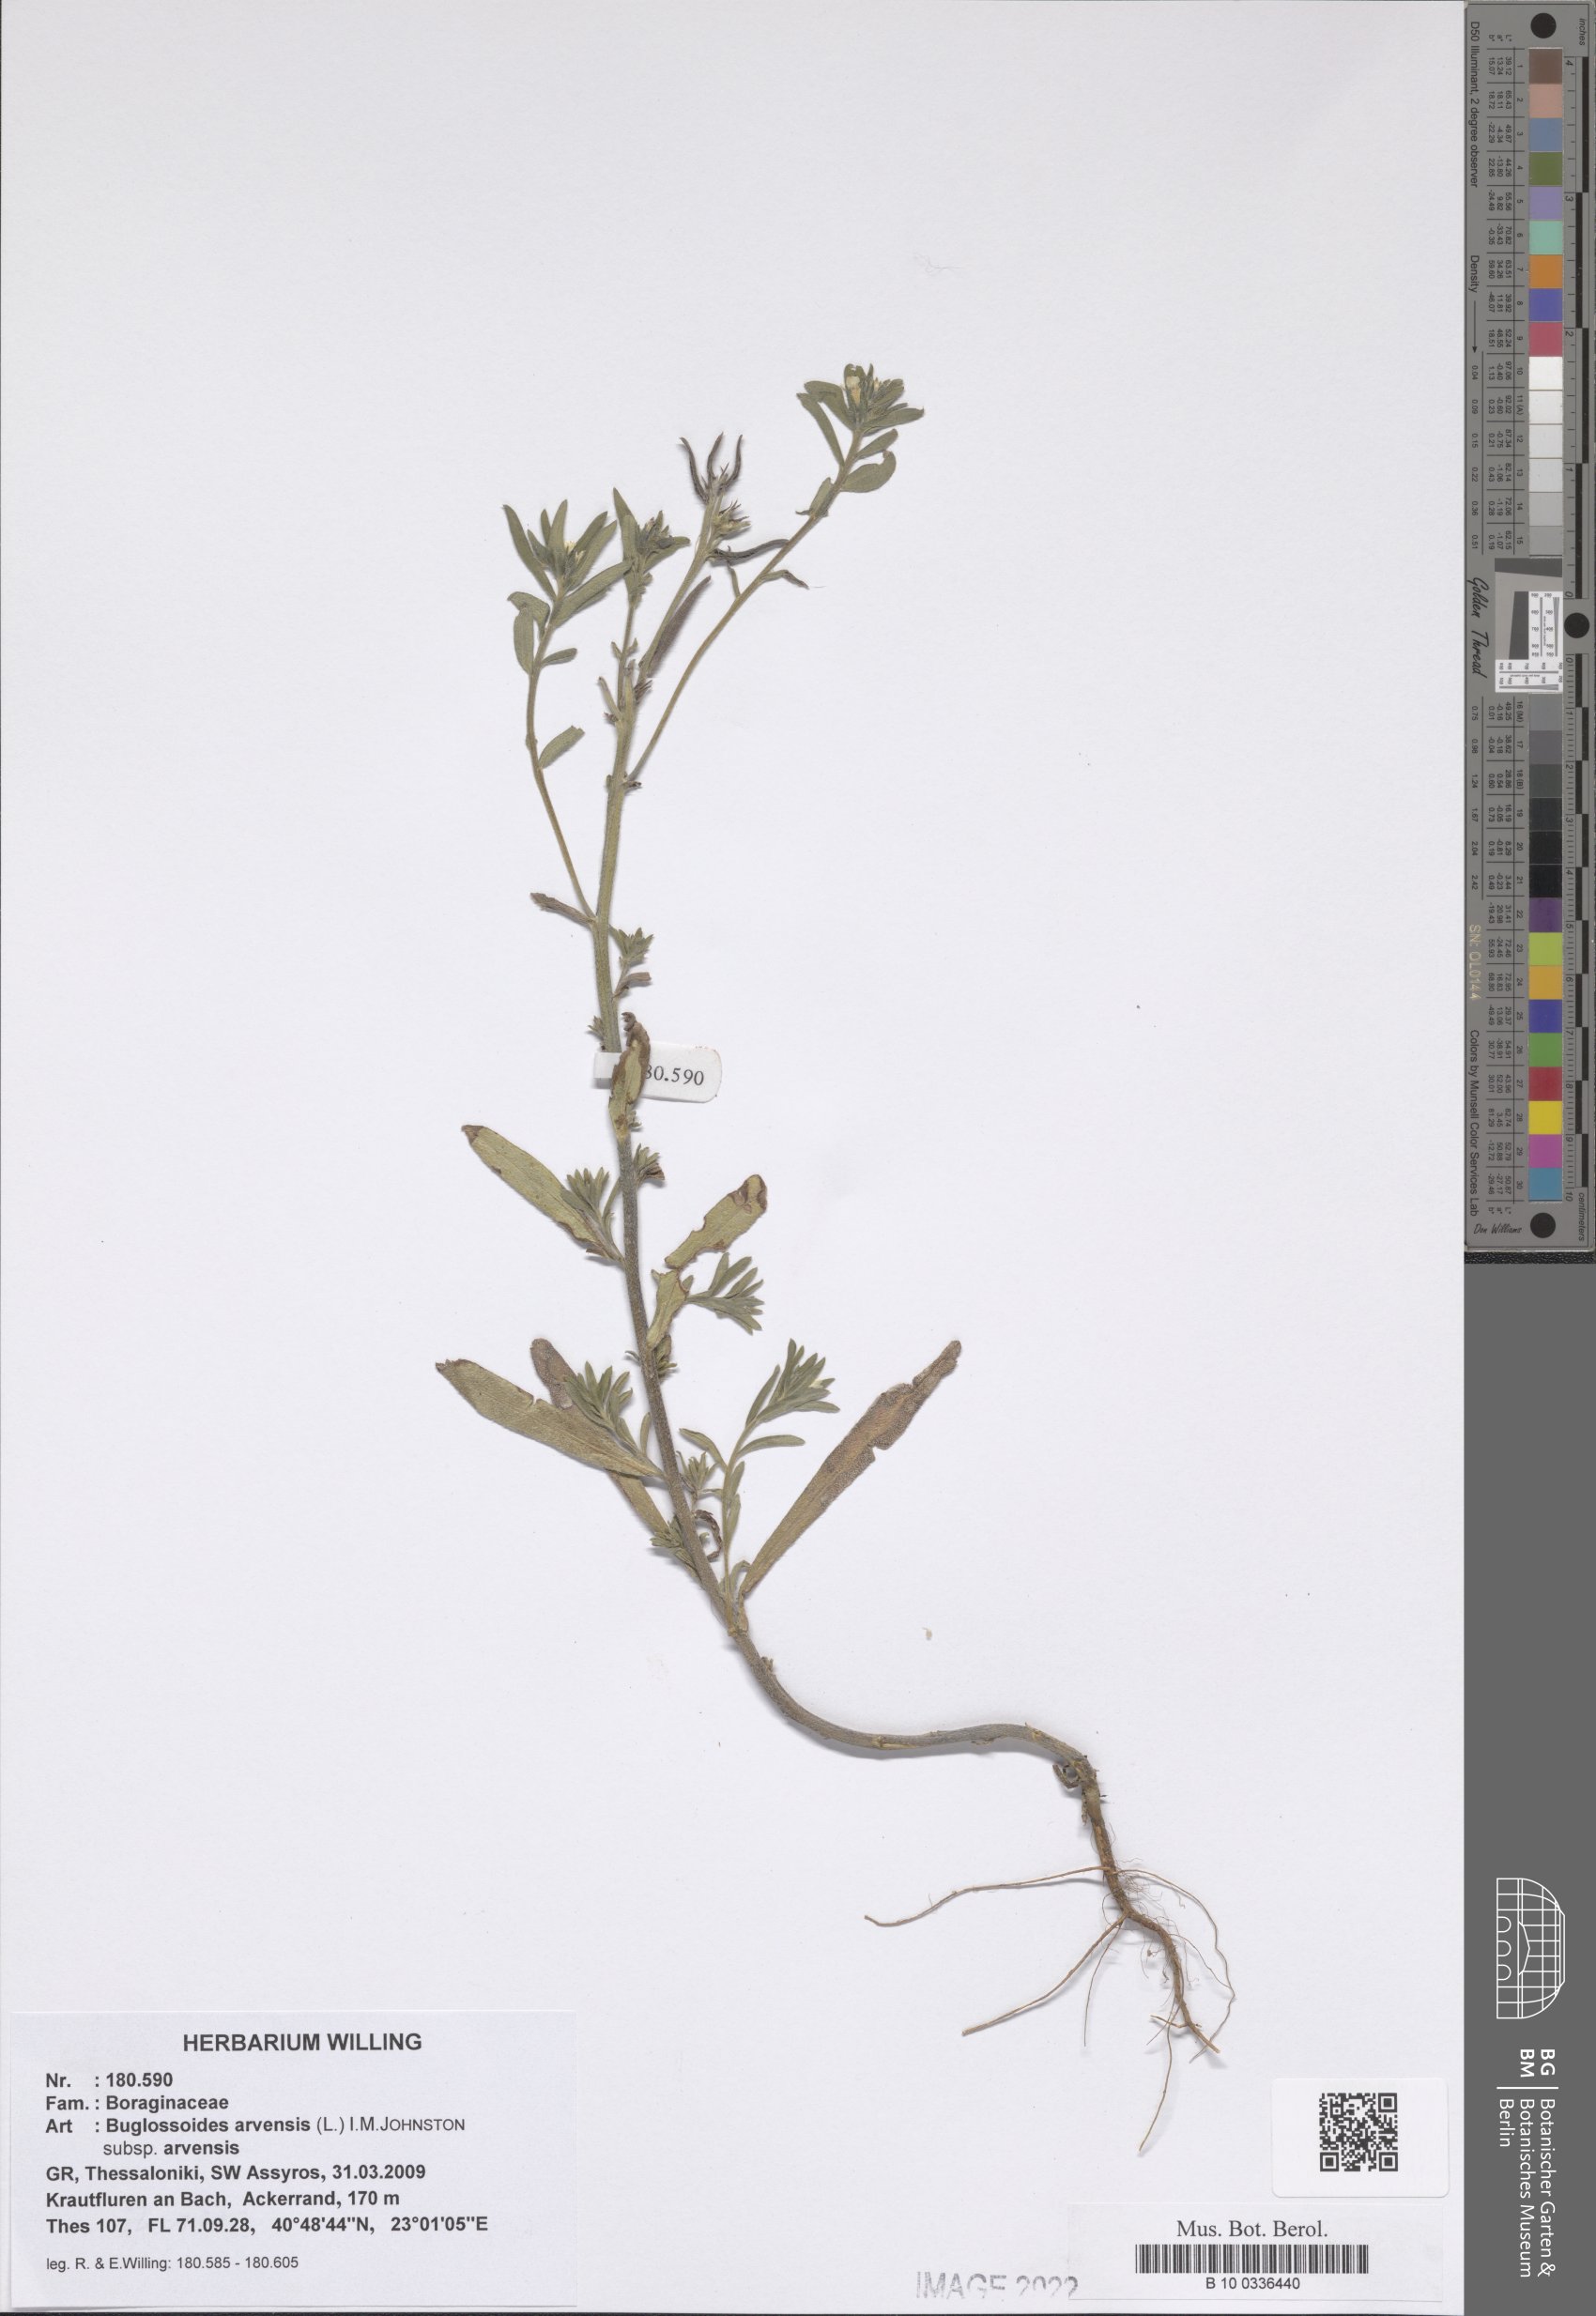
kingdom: Plantae
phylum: Tracheophyta
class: Magnoliopsida
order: Boraginales
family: Boraginaceae
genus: Buglossoides
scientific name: Buglossoides arvensis
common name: Corn gromwell
